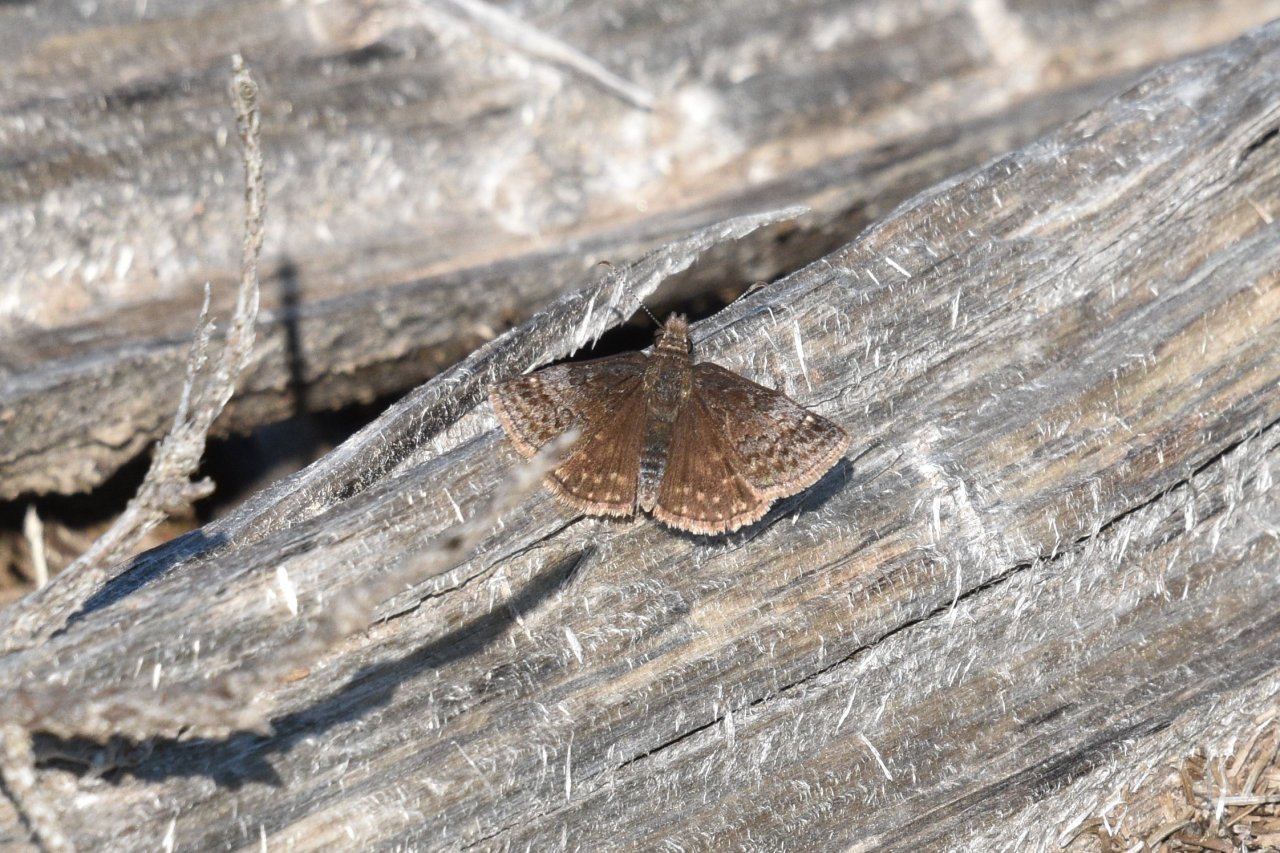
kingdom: Animalia
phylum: Arthropoda
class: Insecta
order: Lepidoptera
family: Hesperiidae
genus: Erynnis
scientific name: Erynnis icelus
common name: Dreamy Duskywing
